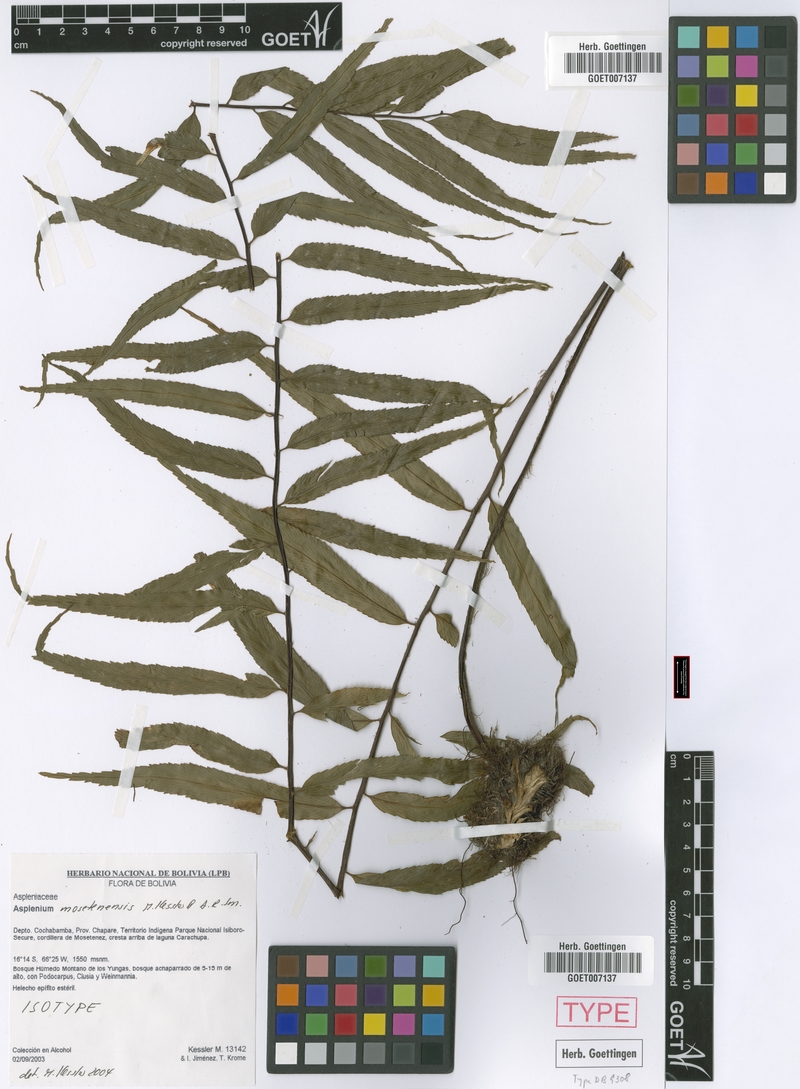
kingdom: Plantae
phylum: Tracheophyta
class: Polypodiopsida
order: Polypodiales
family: Aspleniaceae
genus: Asplenium
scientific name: Asplenium mosetenense
